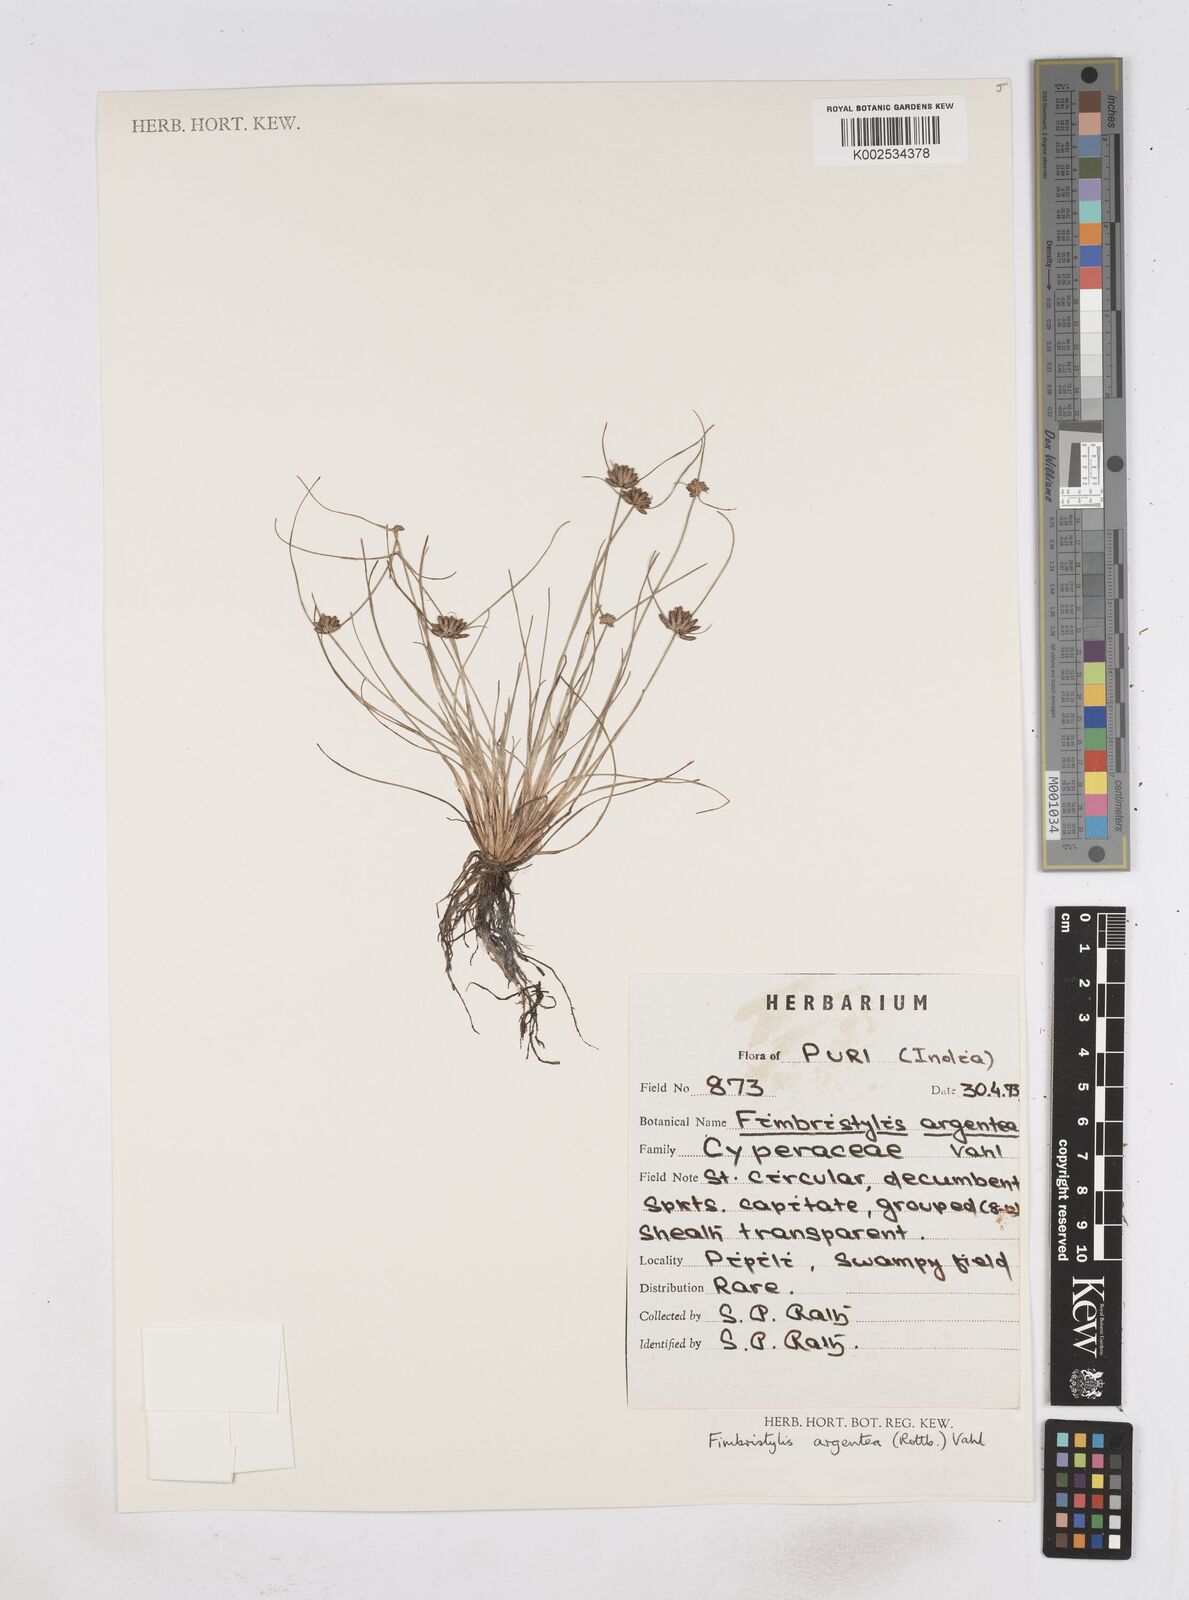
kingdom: Plantae
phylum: Tracheophyta
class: Liliopsida
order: Poales
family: Cyperaceae
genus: Fimbristylis
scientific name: Fimbristylis argentea
